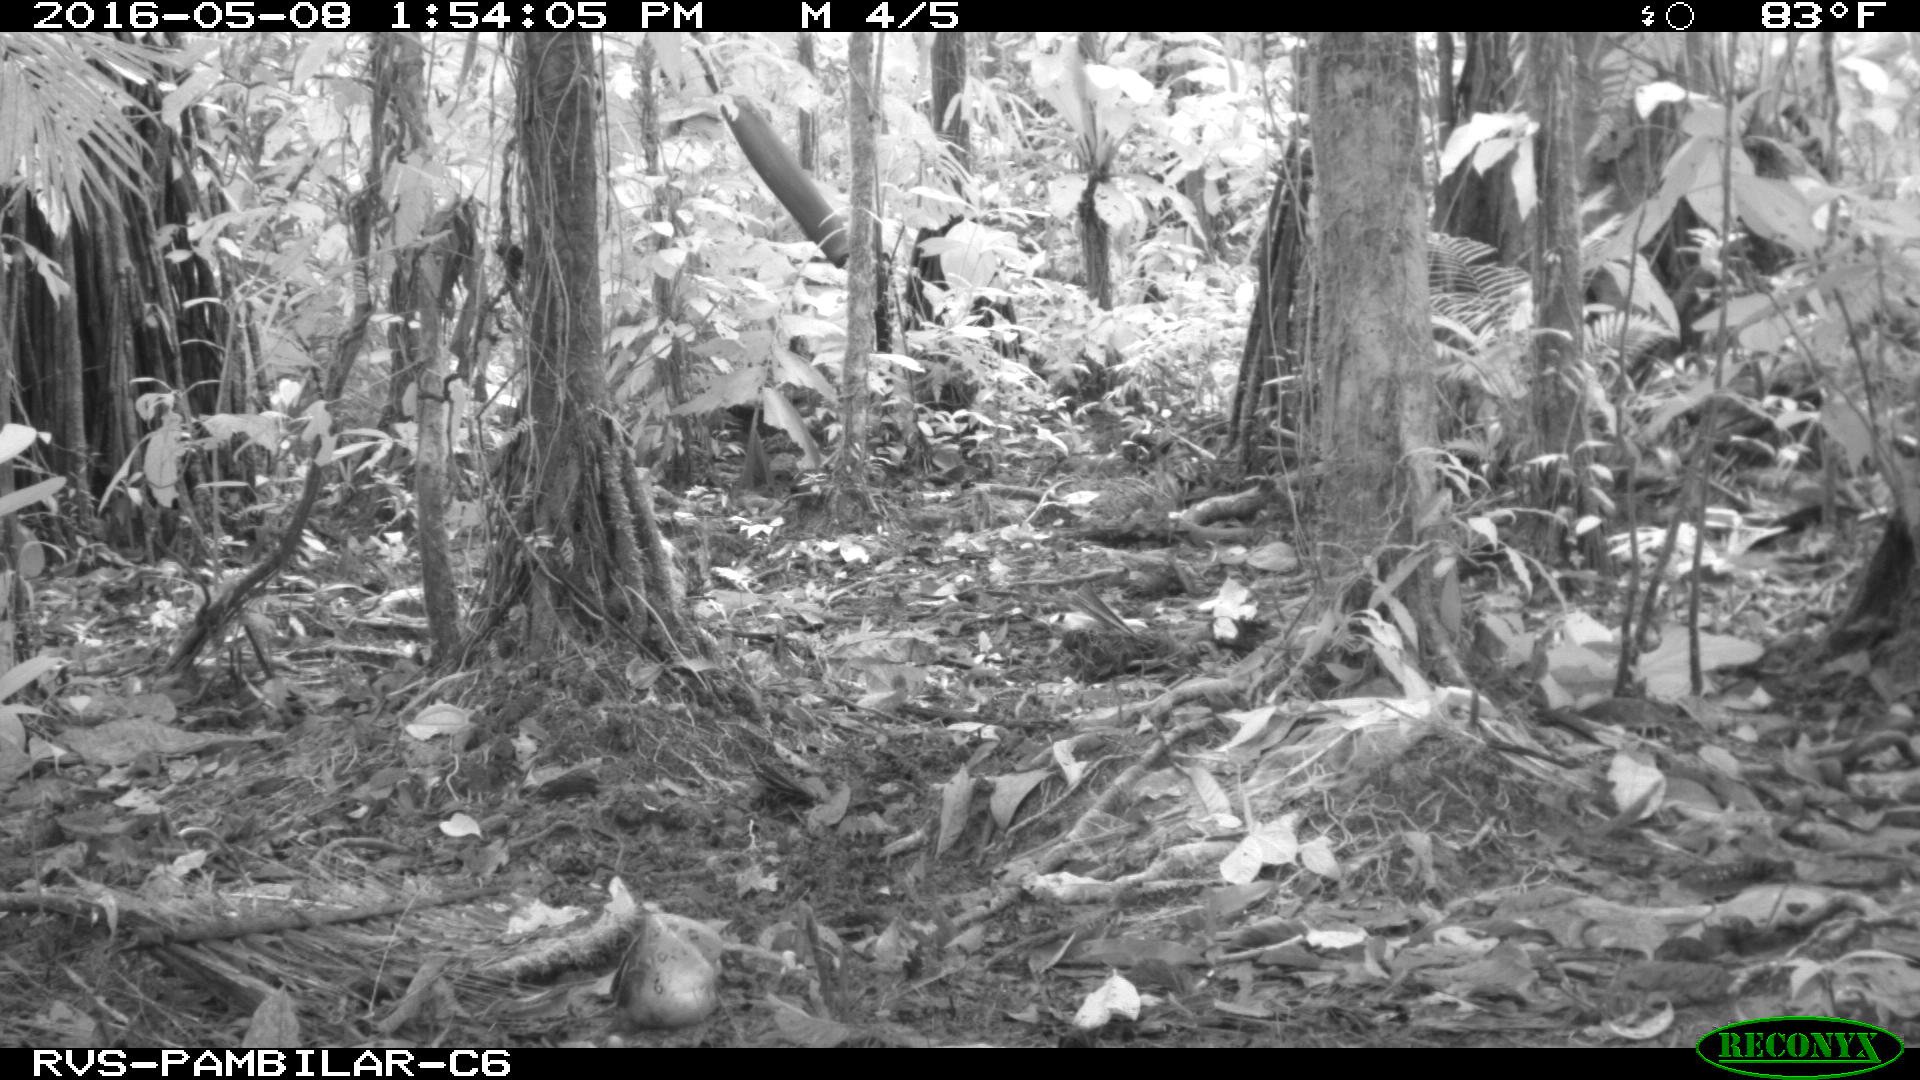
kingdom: Animalia
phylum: Chordata
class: Mammalia
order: Artiodactyla
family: Tayassuidae
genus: Tayassu
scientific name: Tayassu pecari
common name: White-lipped peccary
